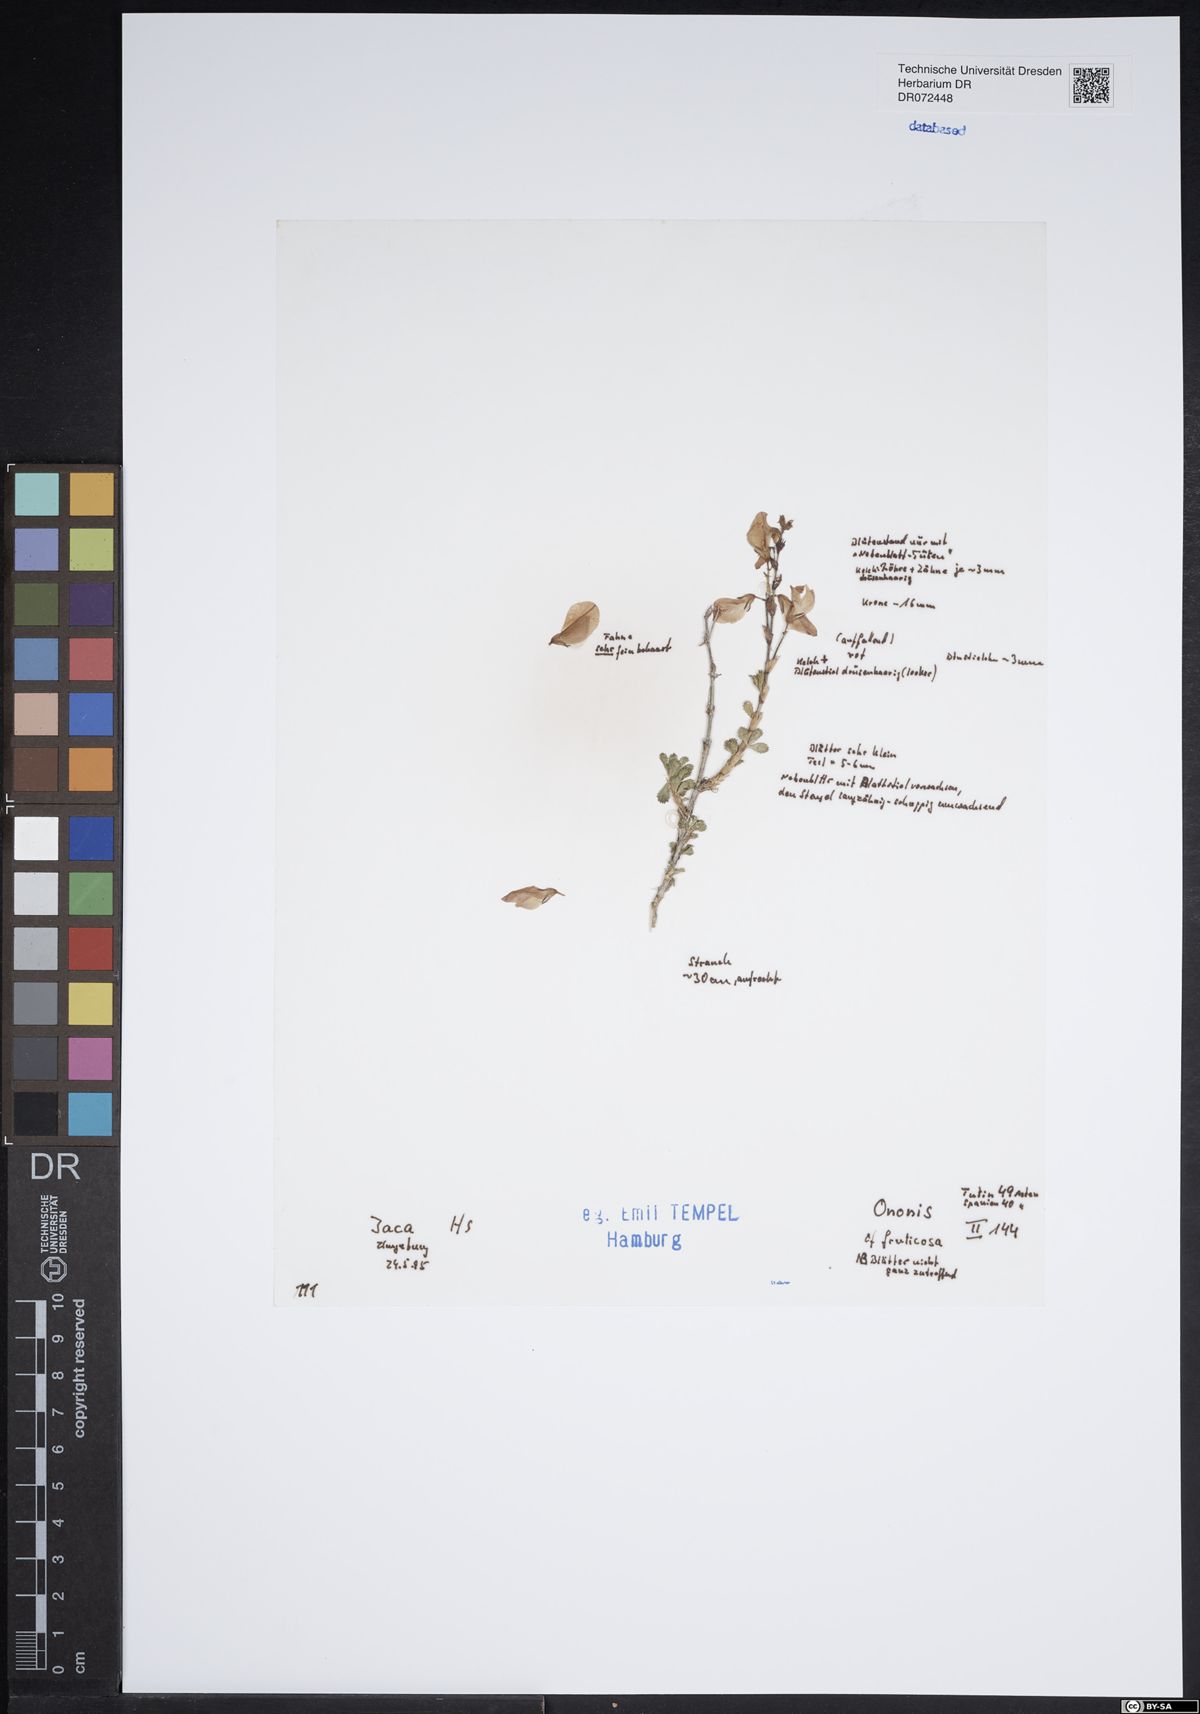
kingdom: Plantae
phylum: Tracheophyta
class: Magnoliopsida
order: Fabales
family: Fabaceae
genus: Ononis
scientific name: Ononis fruticosa
